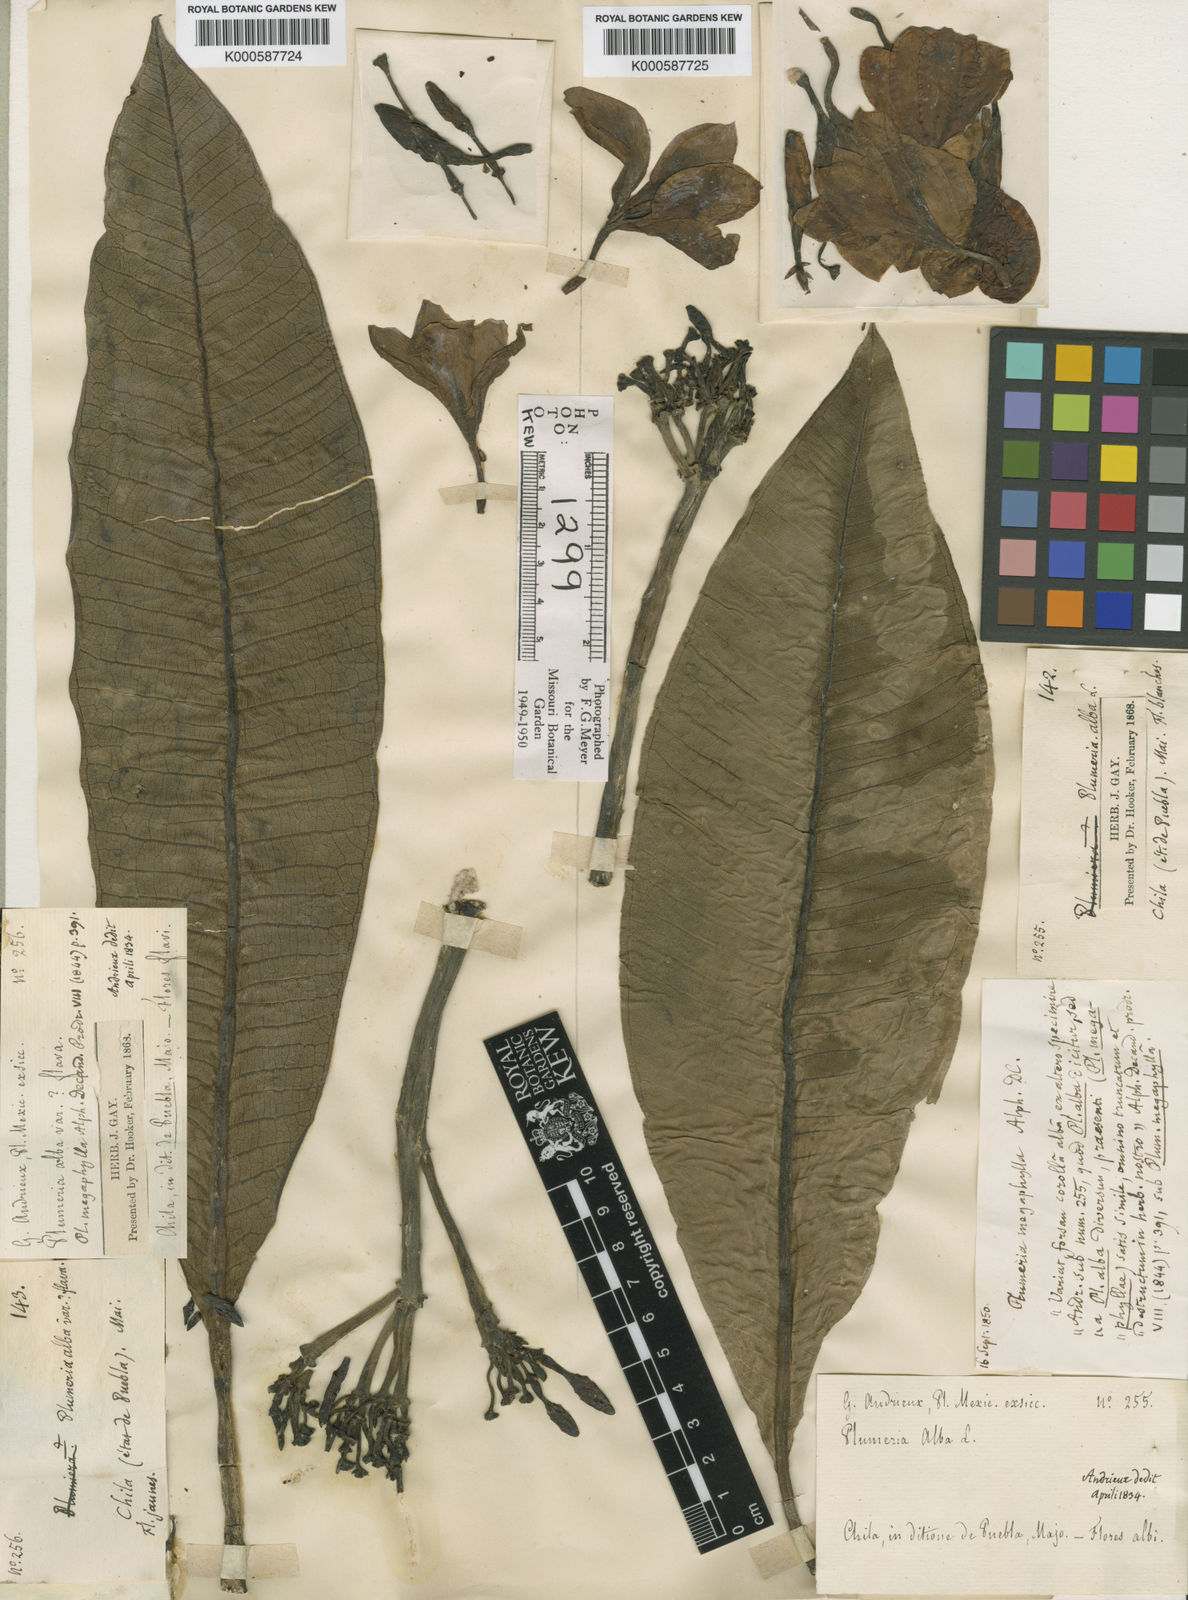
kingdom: Plantae
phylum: Tracheophyta
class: Magnoliopsida
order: Gentianales
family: Apocynaceae
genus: Plumeria
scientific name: Plumeria rubra
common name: Pagoda-tree
